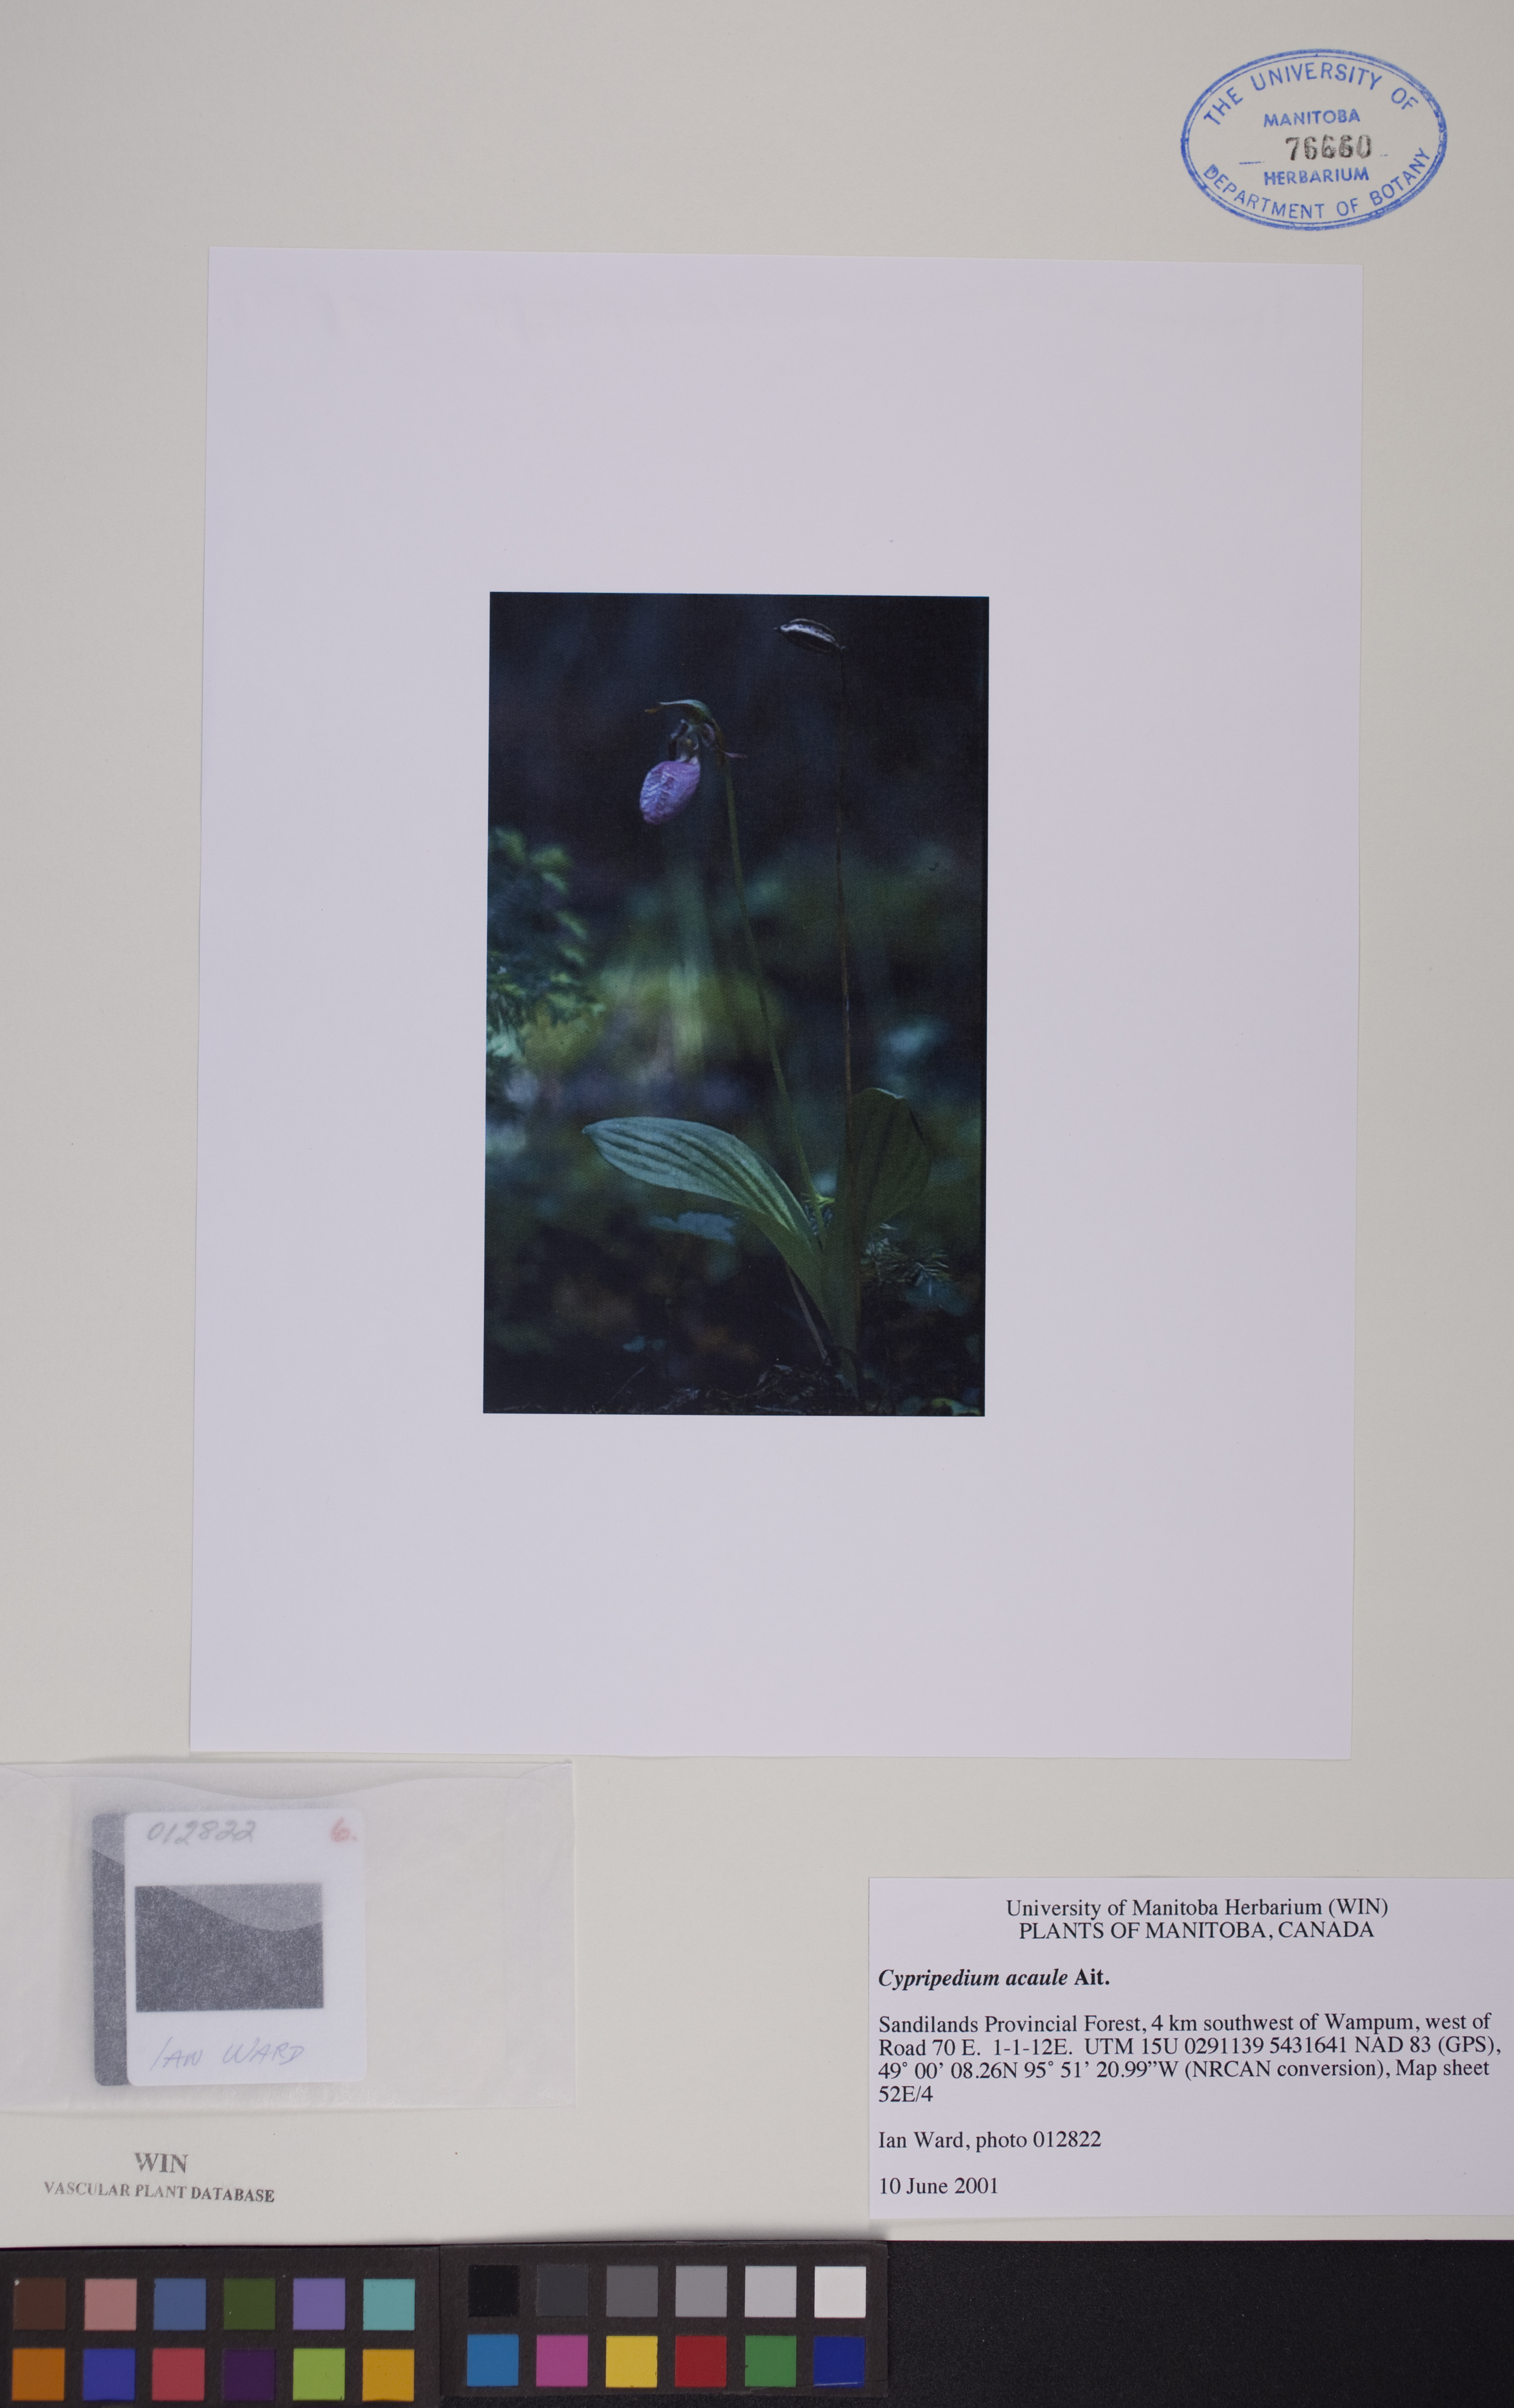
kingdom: Plantae
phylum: Tracheophyta
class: Liliopsida
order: Asparagales
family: Orchidaceae
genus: Cypripedium
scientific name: Cypripedium acaule
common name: Pink lady's-slipper
